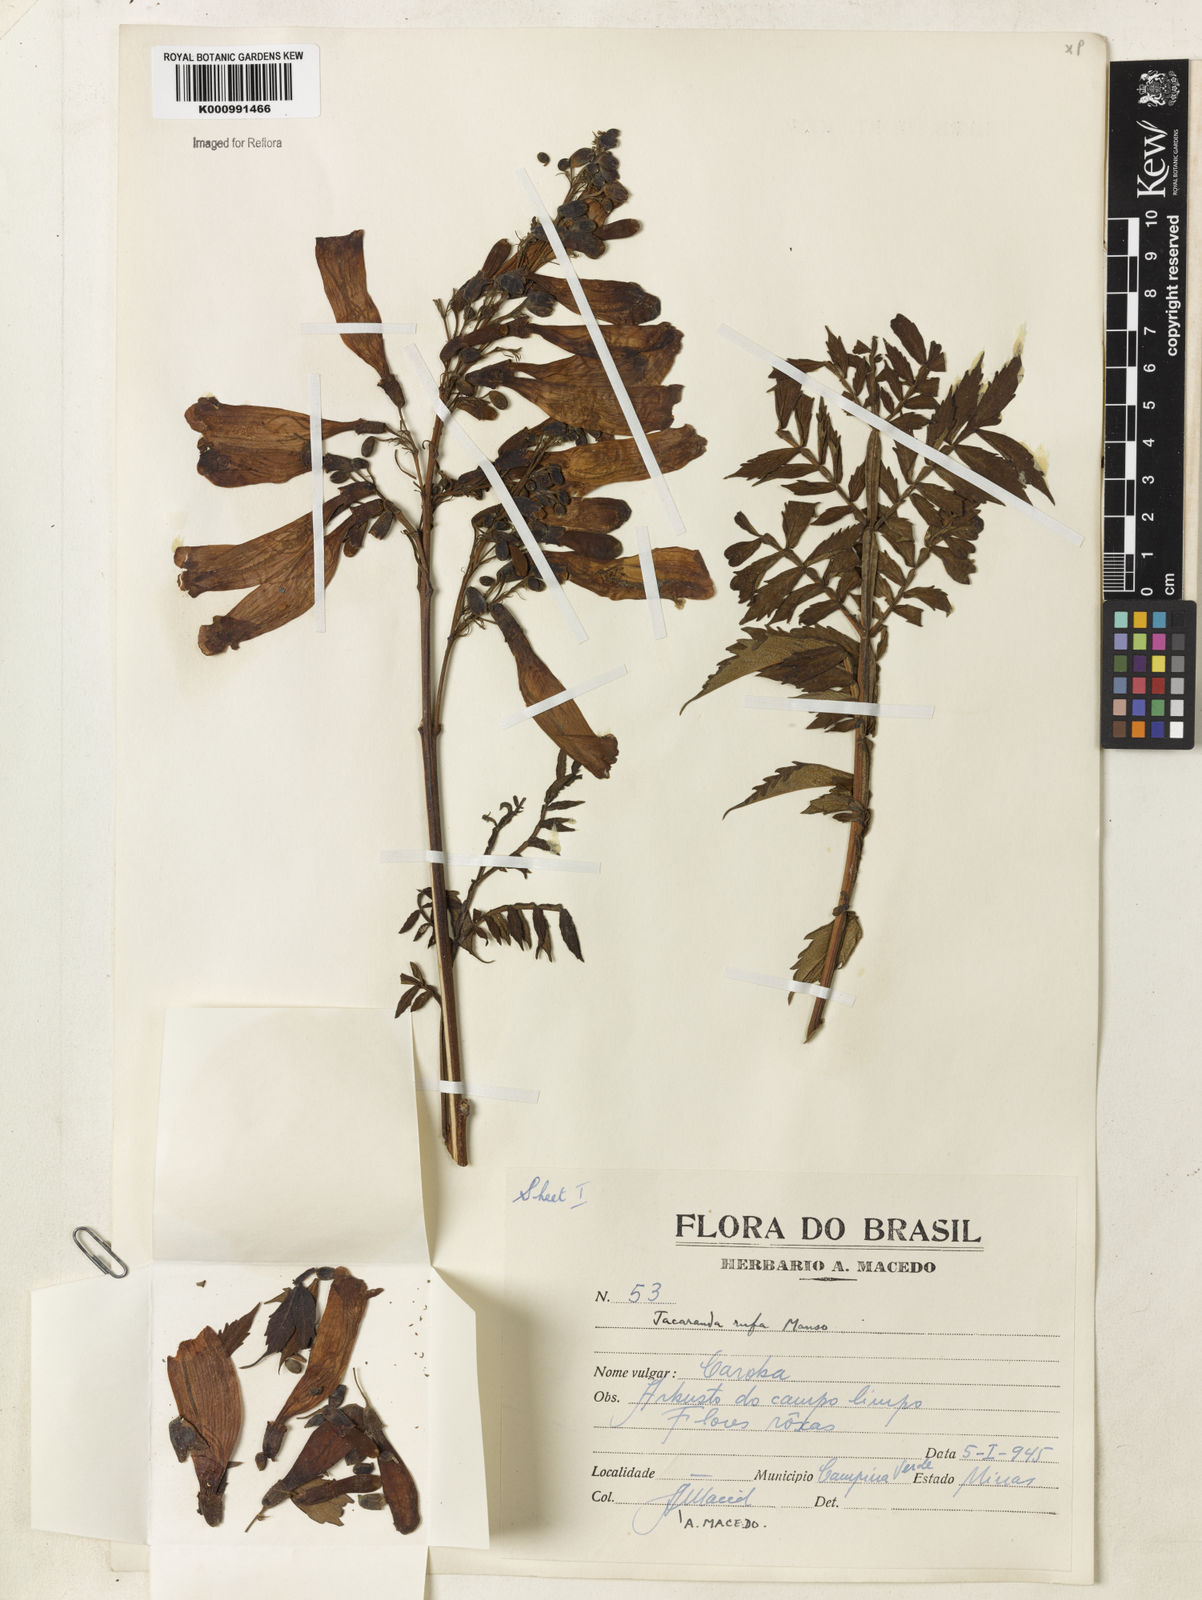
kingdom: Plantae
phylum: Tracheophyta
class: Magnoliopsida
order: Lamiales
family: Bignoniaceae
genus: Jacaranda
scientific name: Jacaranda rufa
